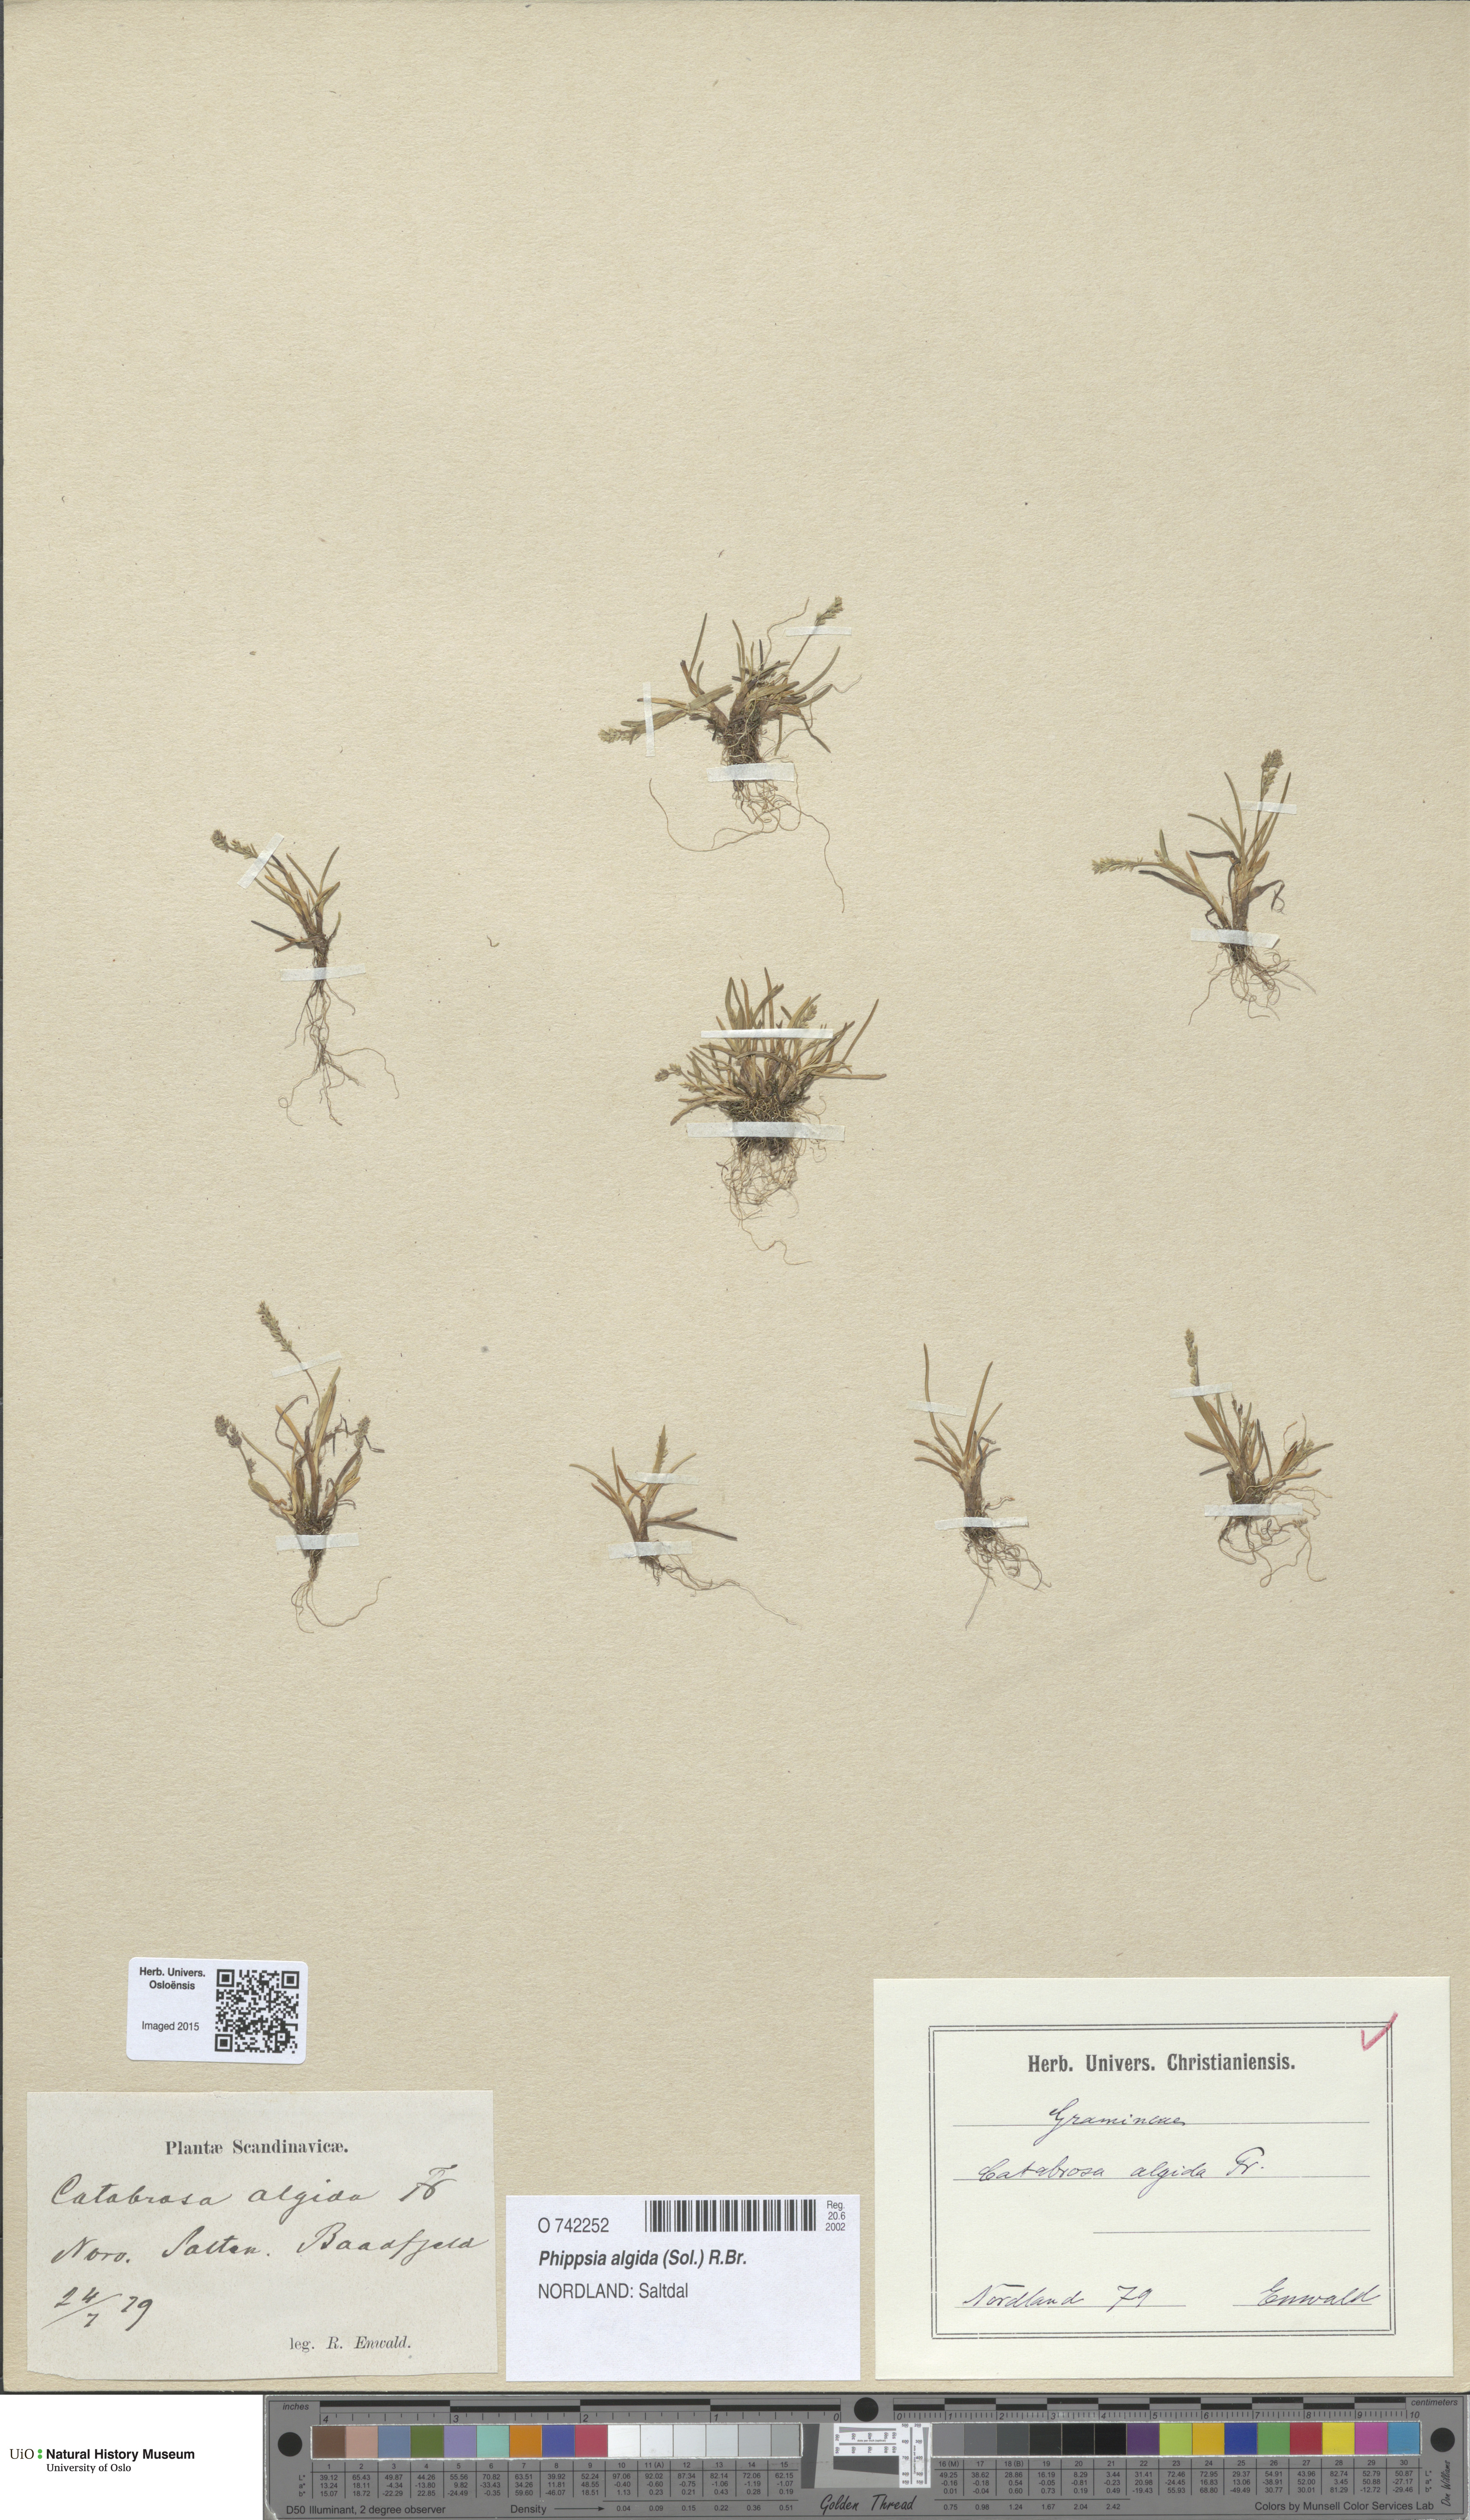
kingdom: Plantae
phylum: Tracheophyta
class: Liliopsida
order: Poales
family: Poaceae
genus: Phippsia
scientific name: Phippsia algida
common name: Ice grass
